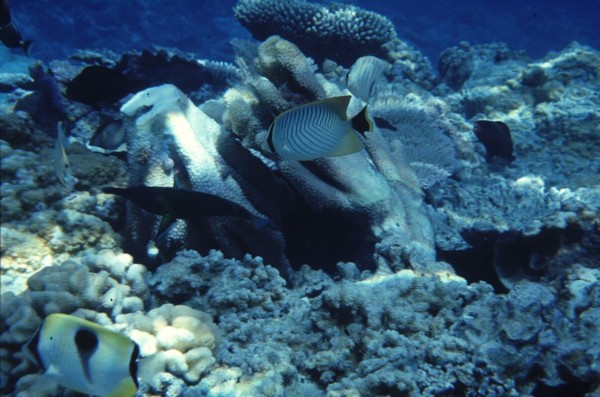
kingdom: Animalia
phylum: Chordata
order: Perciformes
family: Chaetodontidae
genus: Chaetodon
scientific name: Chaetodon trifascialis
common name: Chevroned butterflyfish
